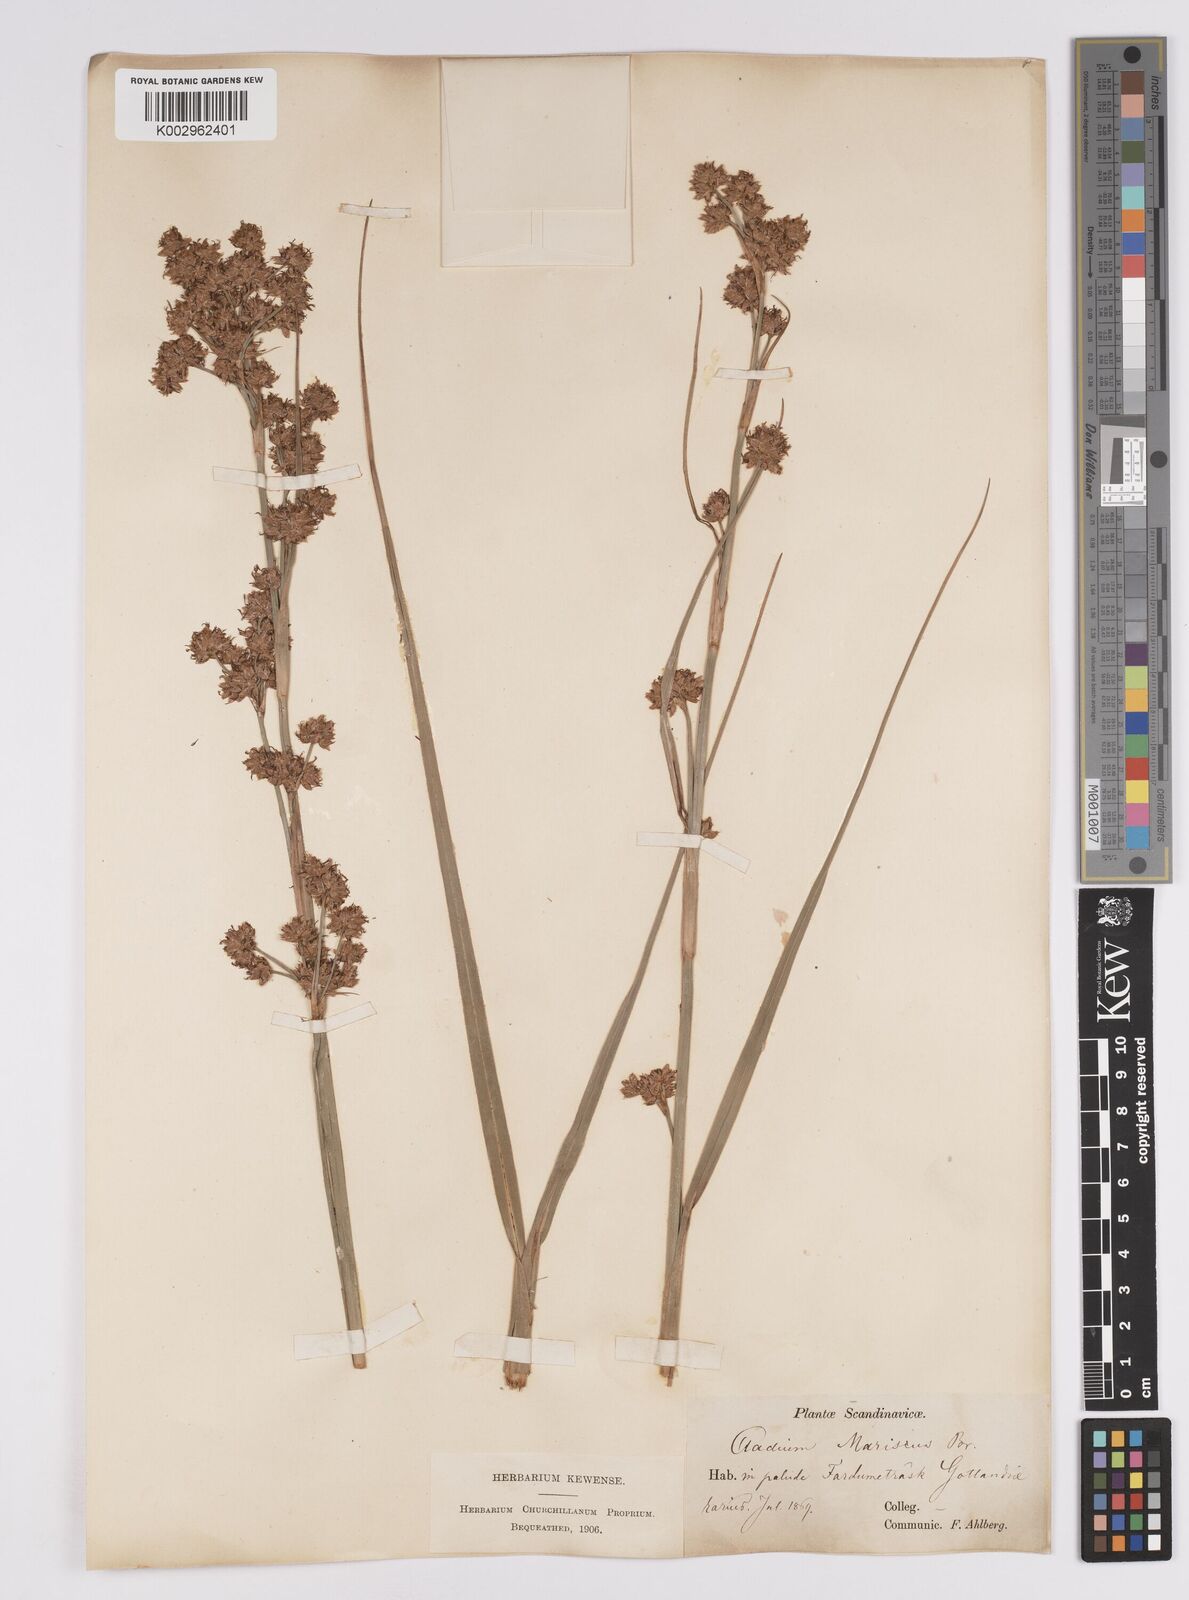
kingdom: Plantae
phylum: Tracheophyta
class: Liliopsida
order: Poales
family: Cyperaceae
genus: Cladium
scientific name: Cladium mariscus
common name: Great fen-sedge
